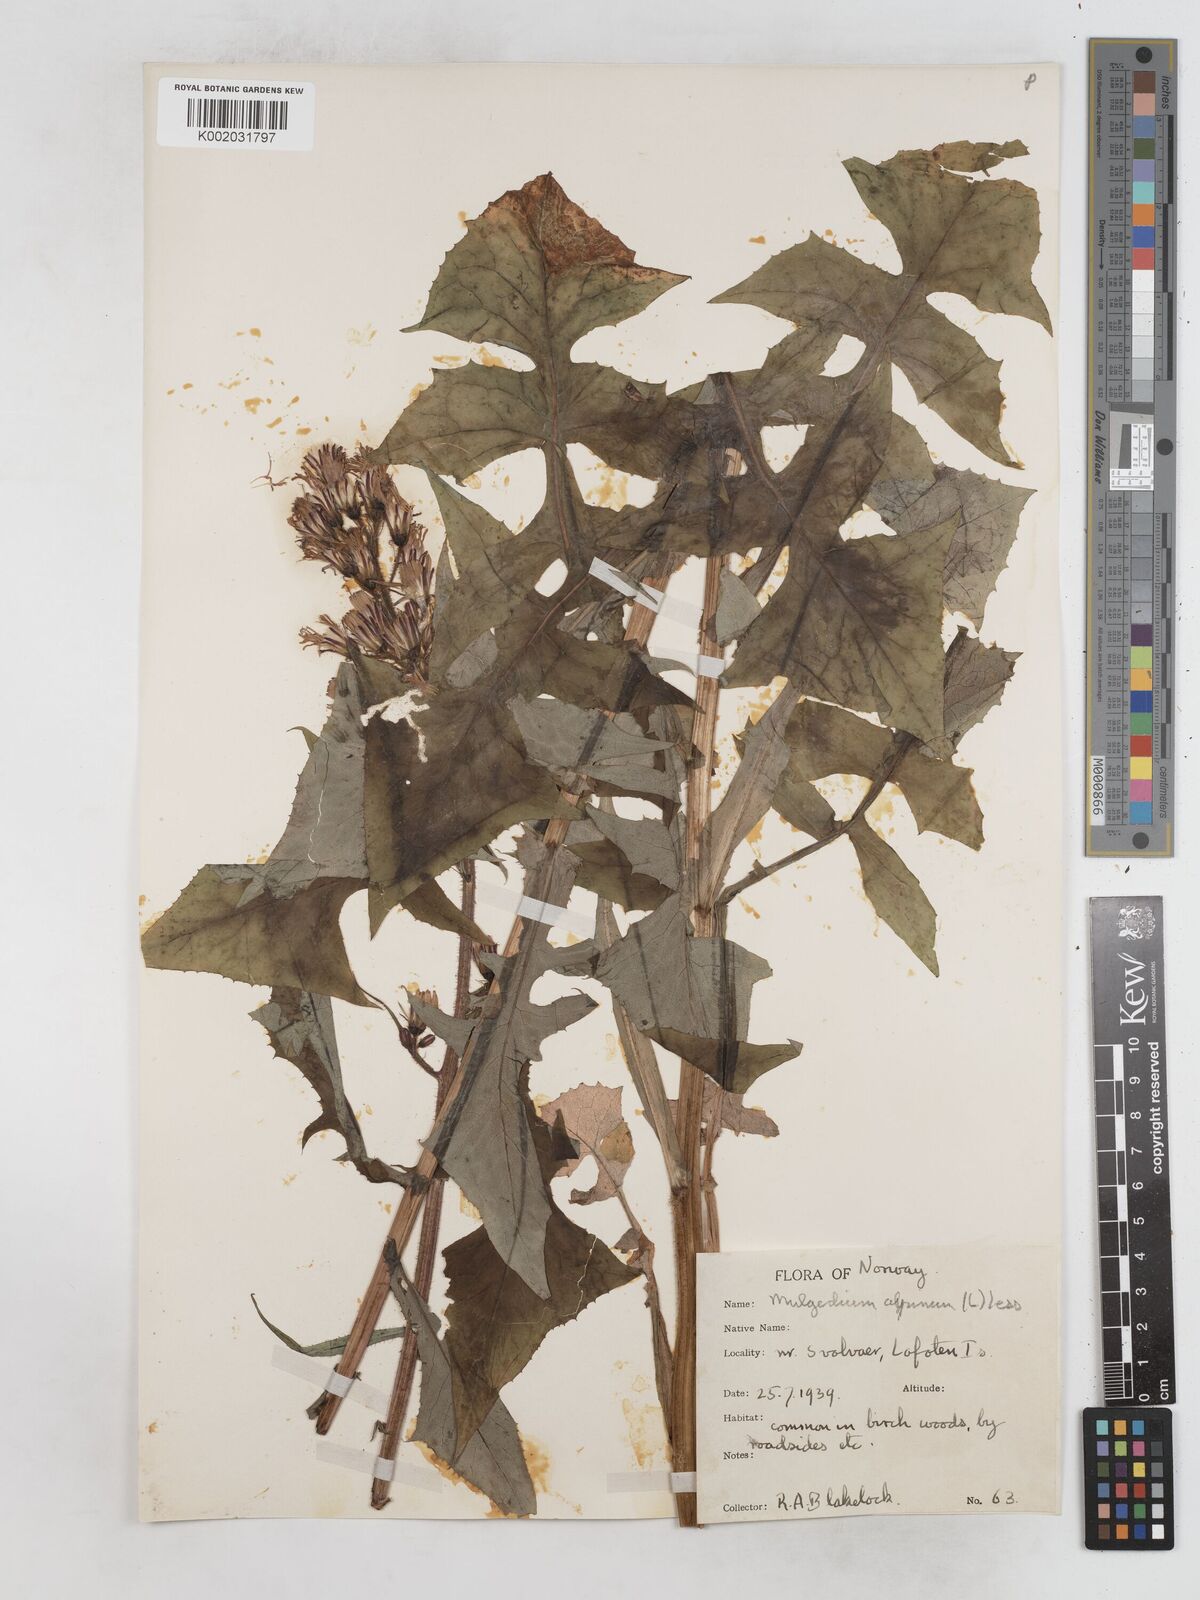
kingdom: Plantae
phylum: Tracheophyta
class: Magnoliopsida
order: Asterales
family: Asteraceae
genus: Cicerbita
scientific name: Cicerbita alpina
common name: Alpine blue-sow-thistle
